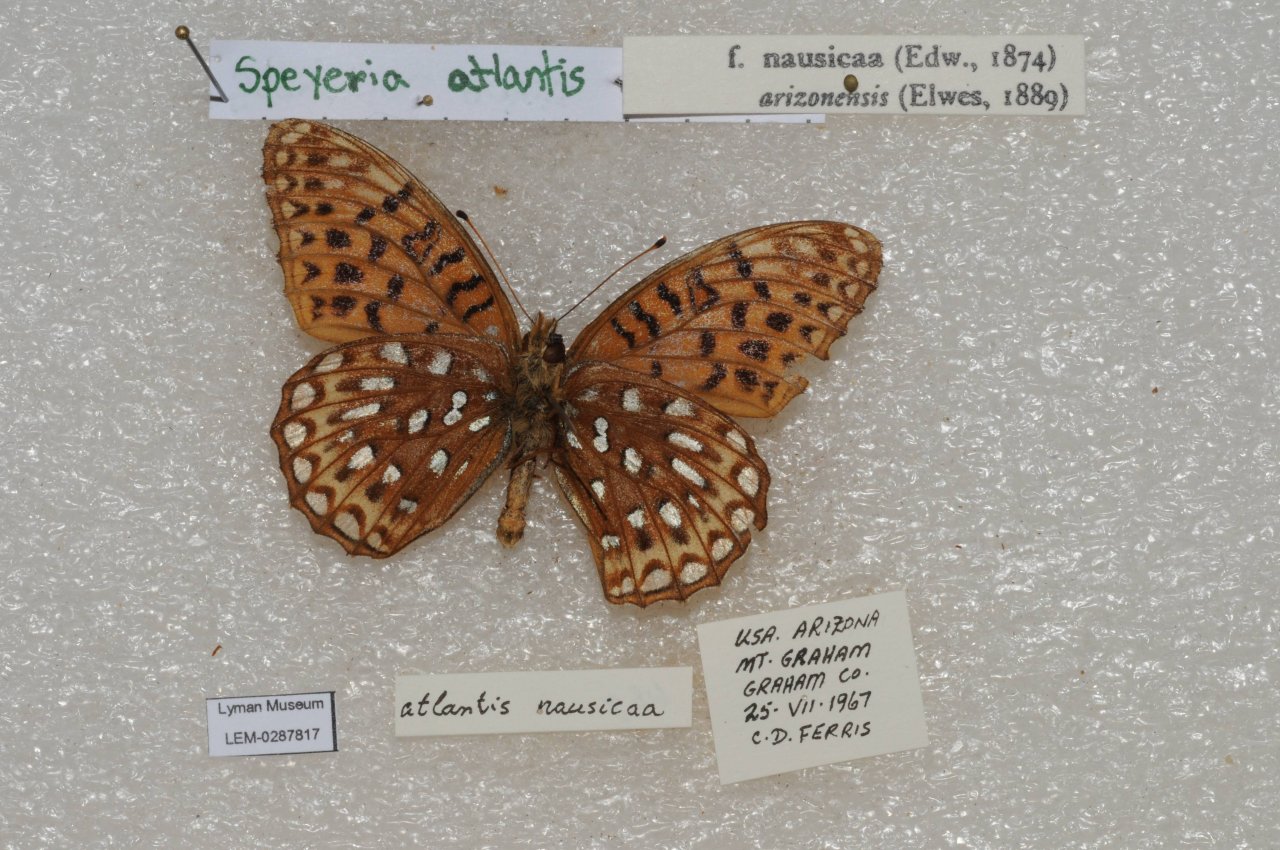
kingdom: Animalia
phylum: Arthropoda
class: Insecta
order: Lepidoptera
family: Nymphalidae
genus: Speyeria
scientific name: Speyeria
